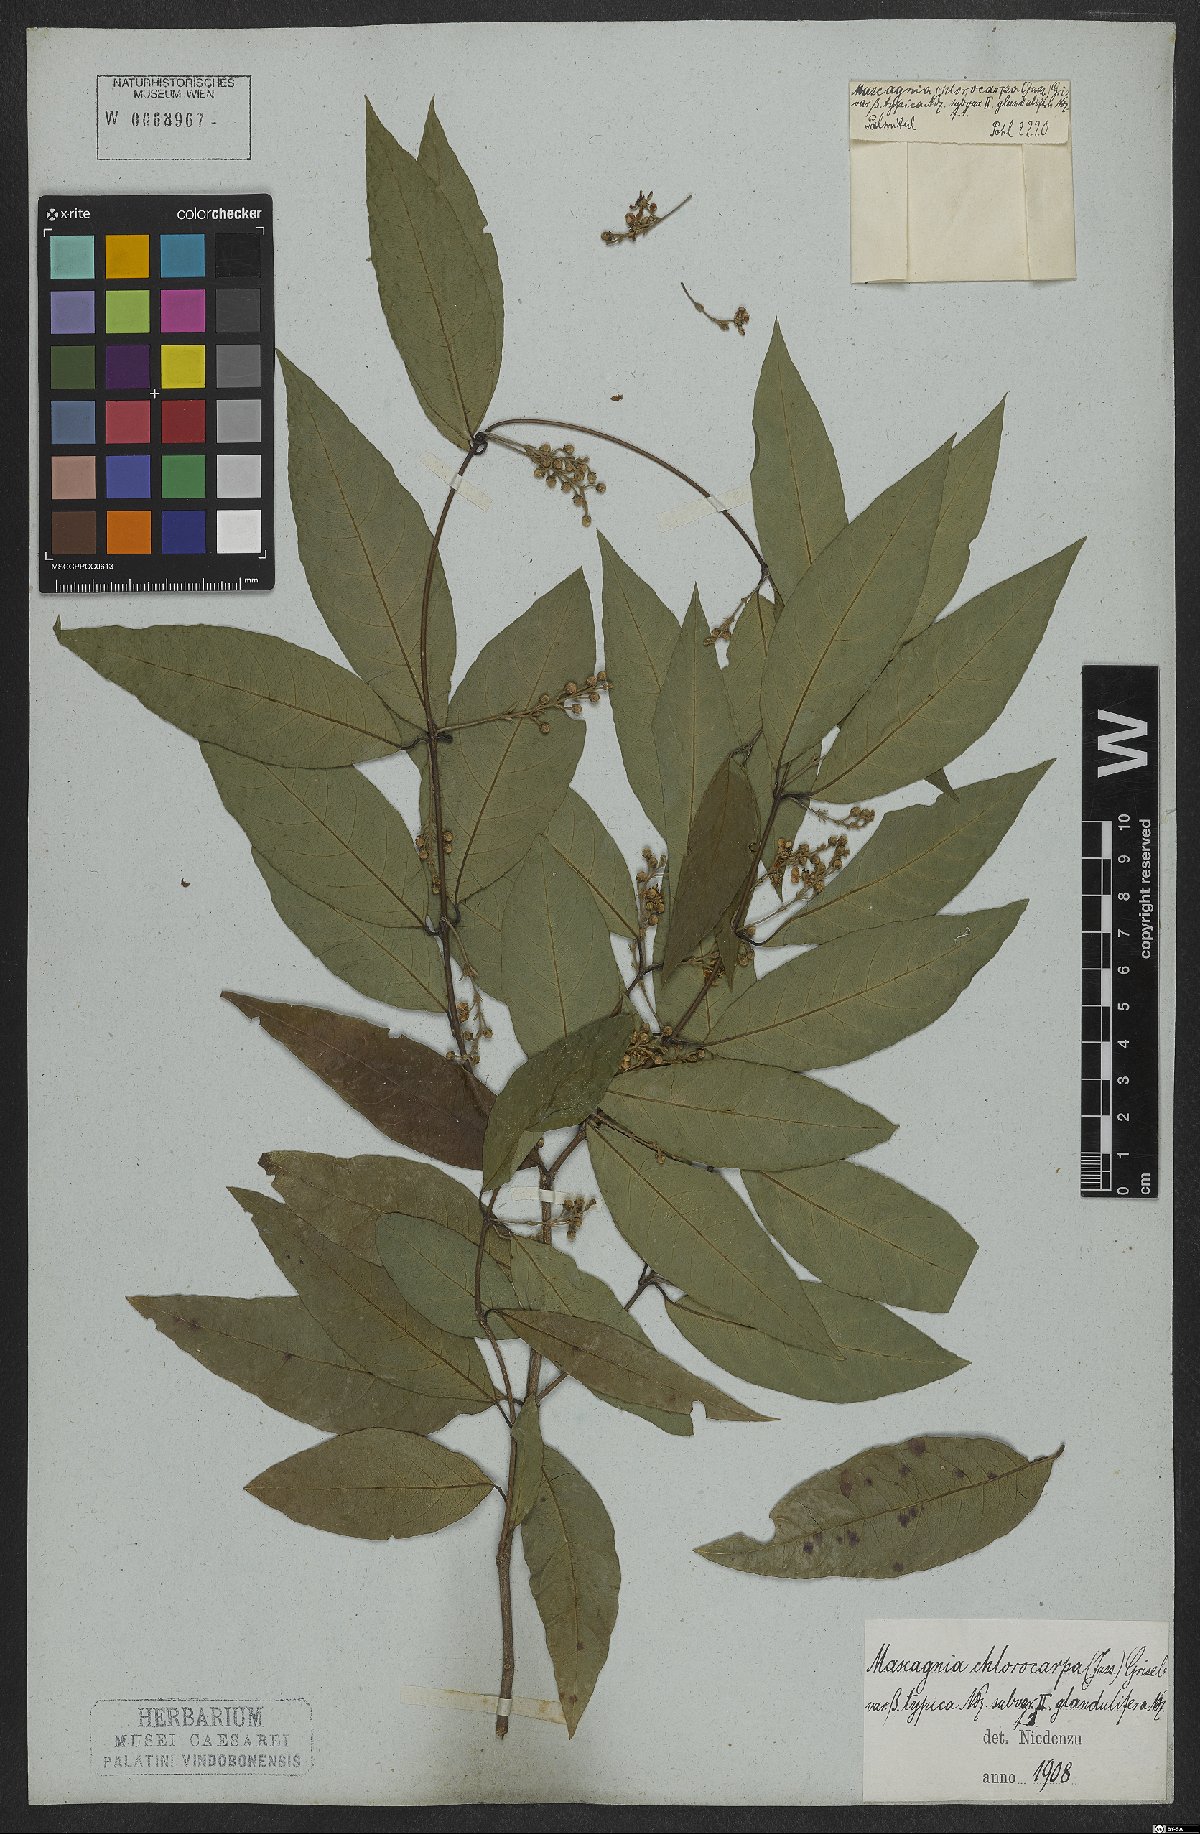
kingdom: Plantae
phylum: Tracheophyta
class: Magnoliopsida
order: Malpighiales
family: Malpighiaceae
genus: Carolus
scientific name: Carolus chlorocarpus
